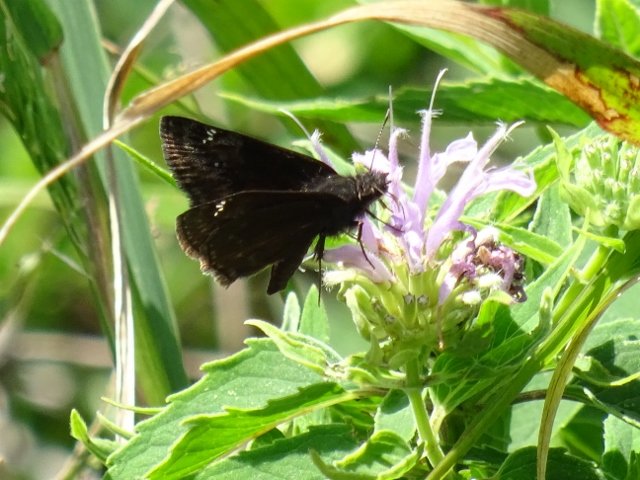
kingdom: Animalia
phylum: Arthropoda
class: Insecta
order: Lepidoptera
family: Hesperiidae
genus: Gesta
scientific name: Gesta
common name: Wild Indigo Duskywing
